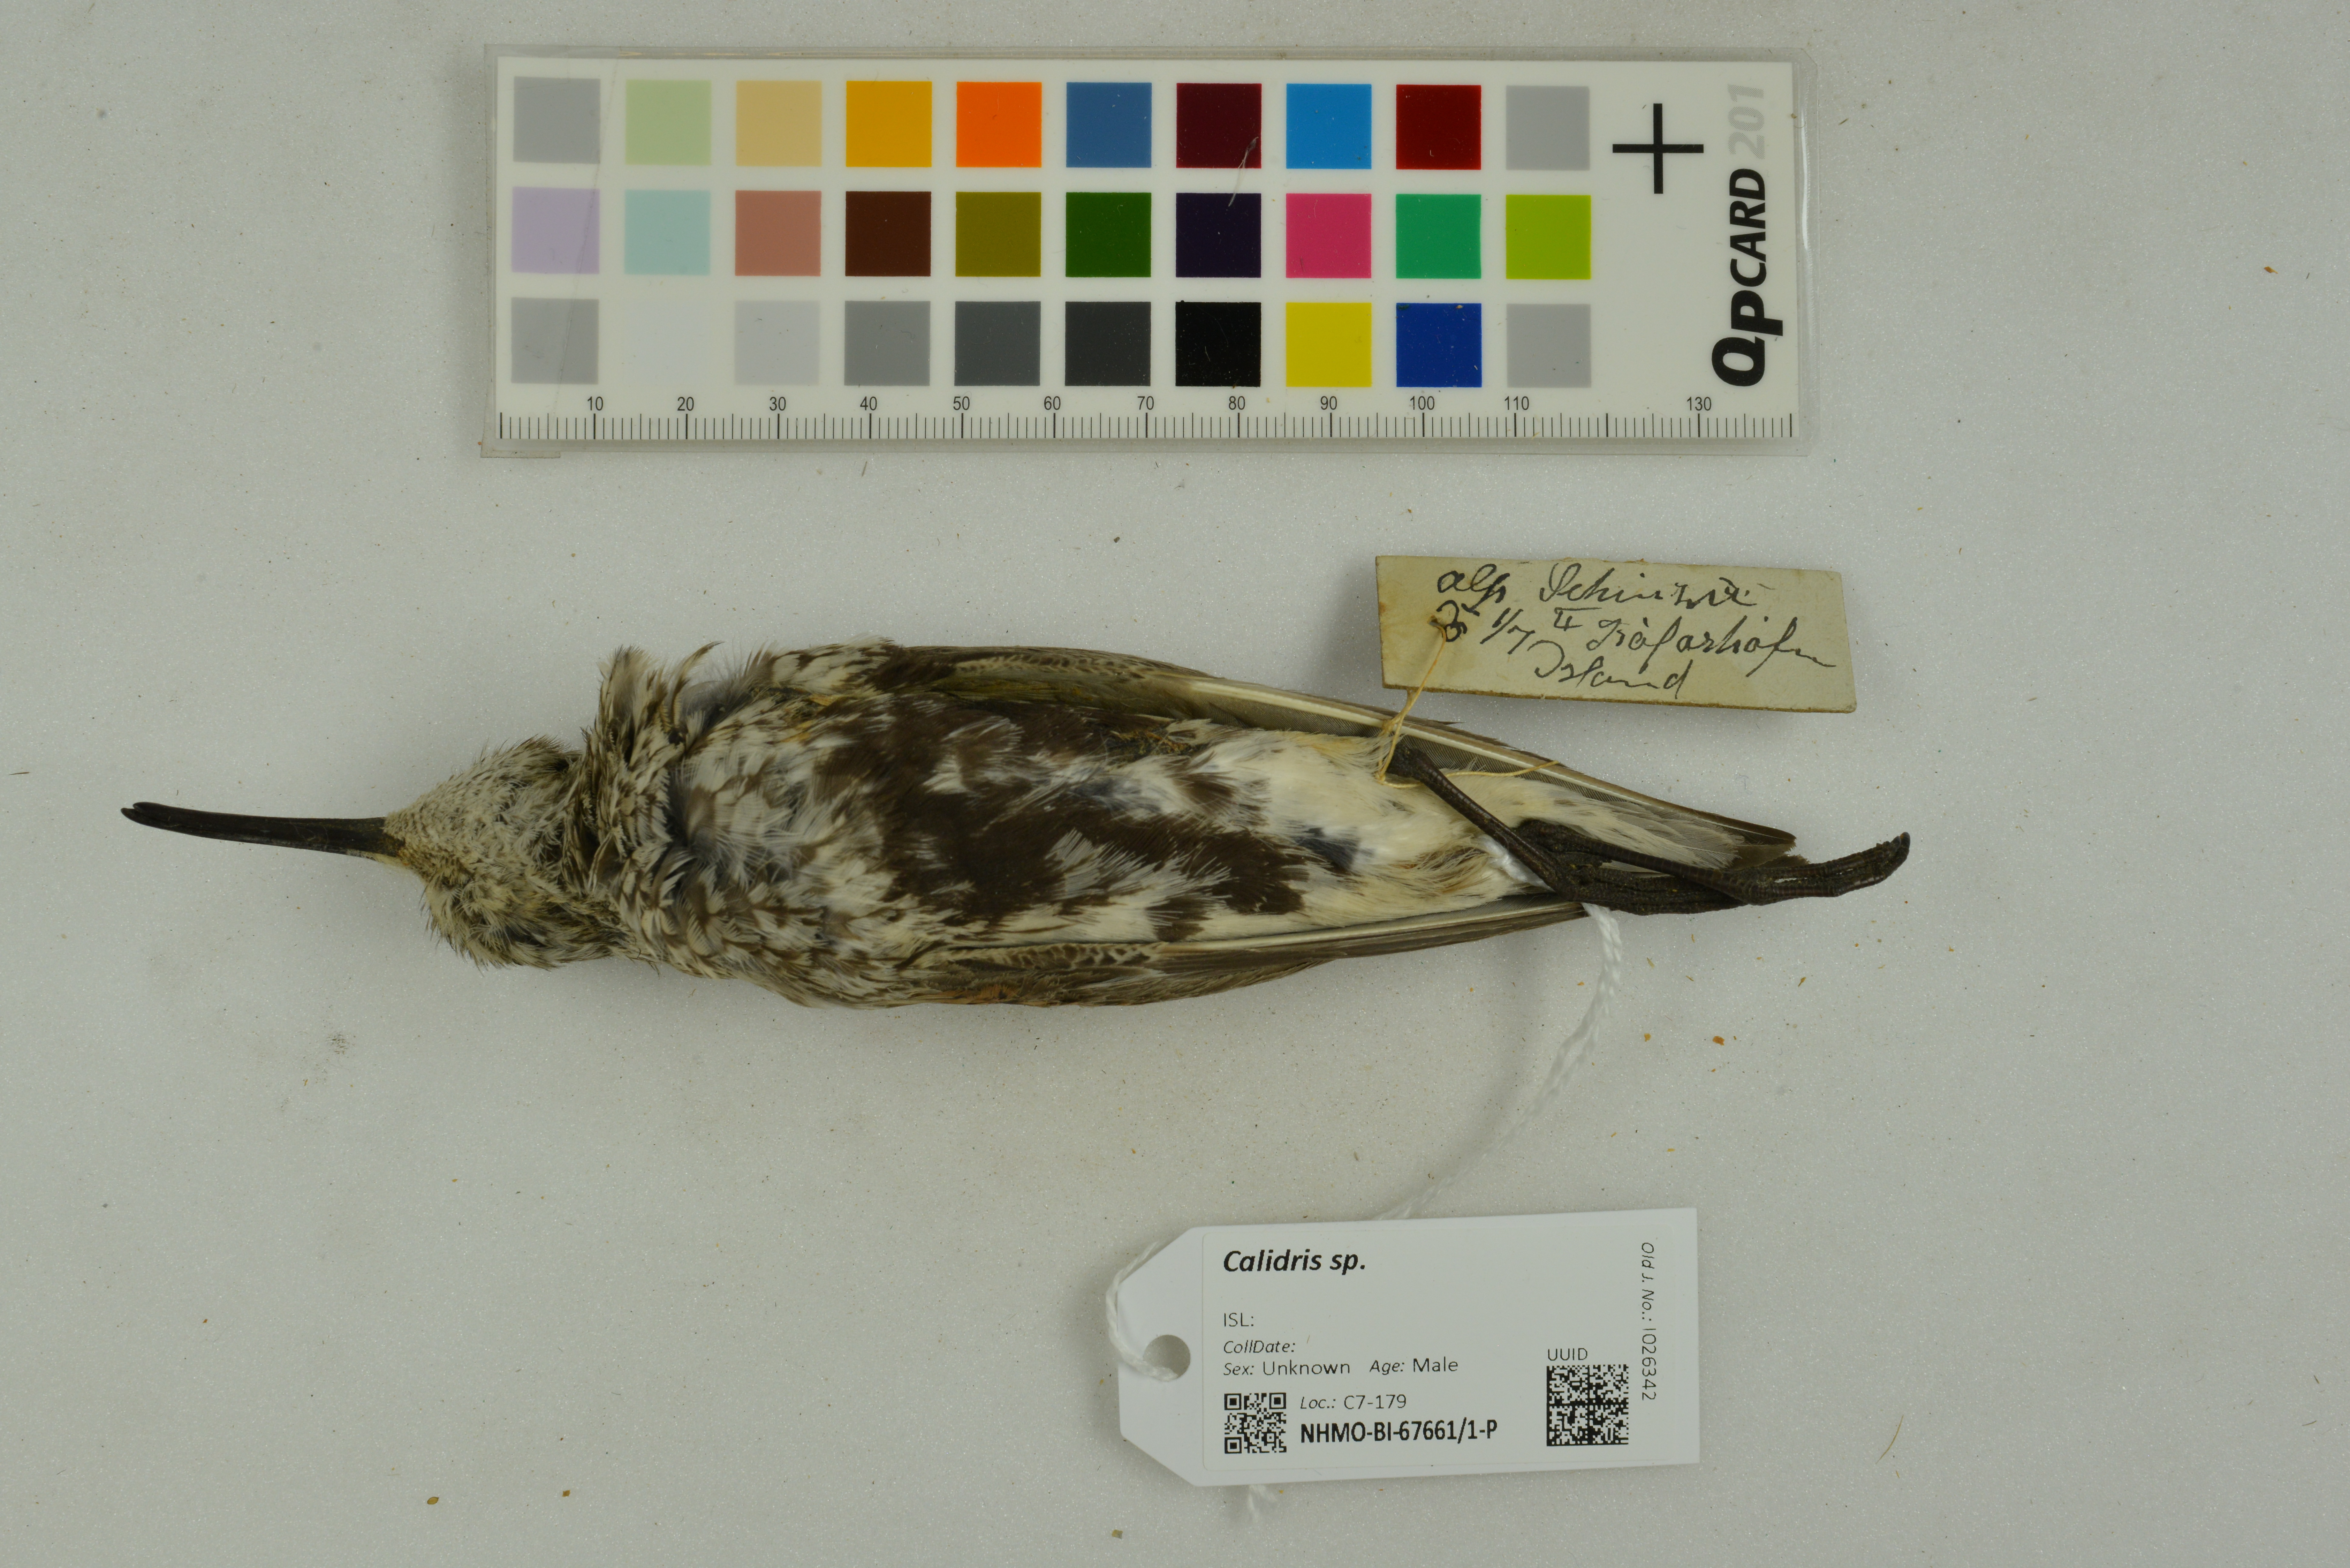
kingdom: Animalia
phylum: Chordata
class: Aves
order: Charadriiformes
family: Scolopacidae
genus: Calidris
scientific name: Calidris
